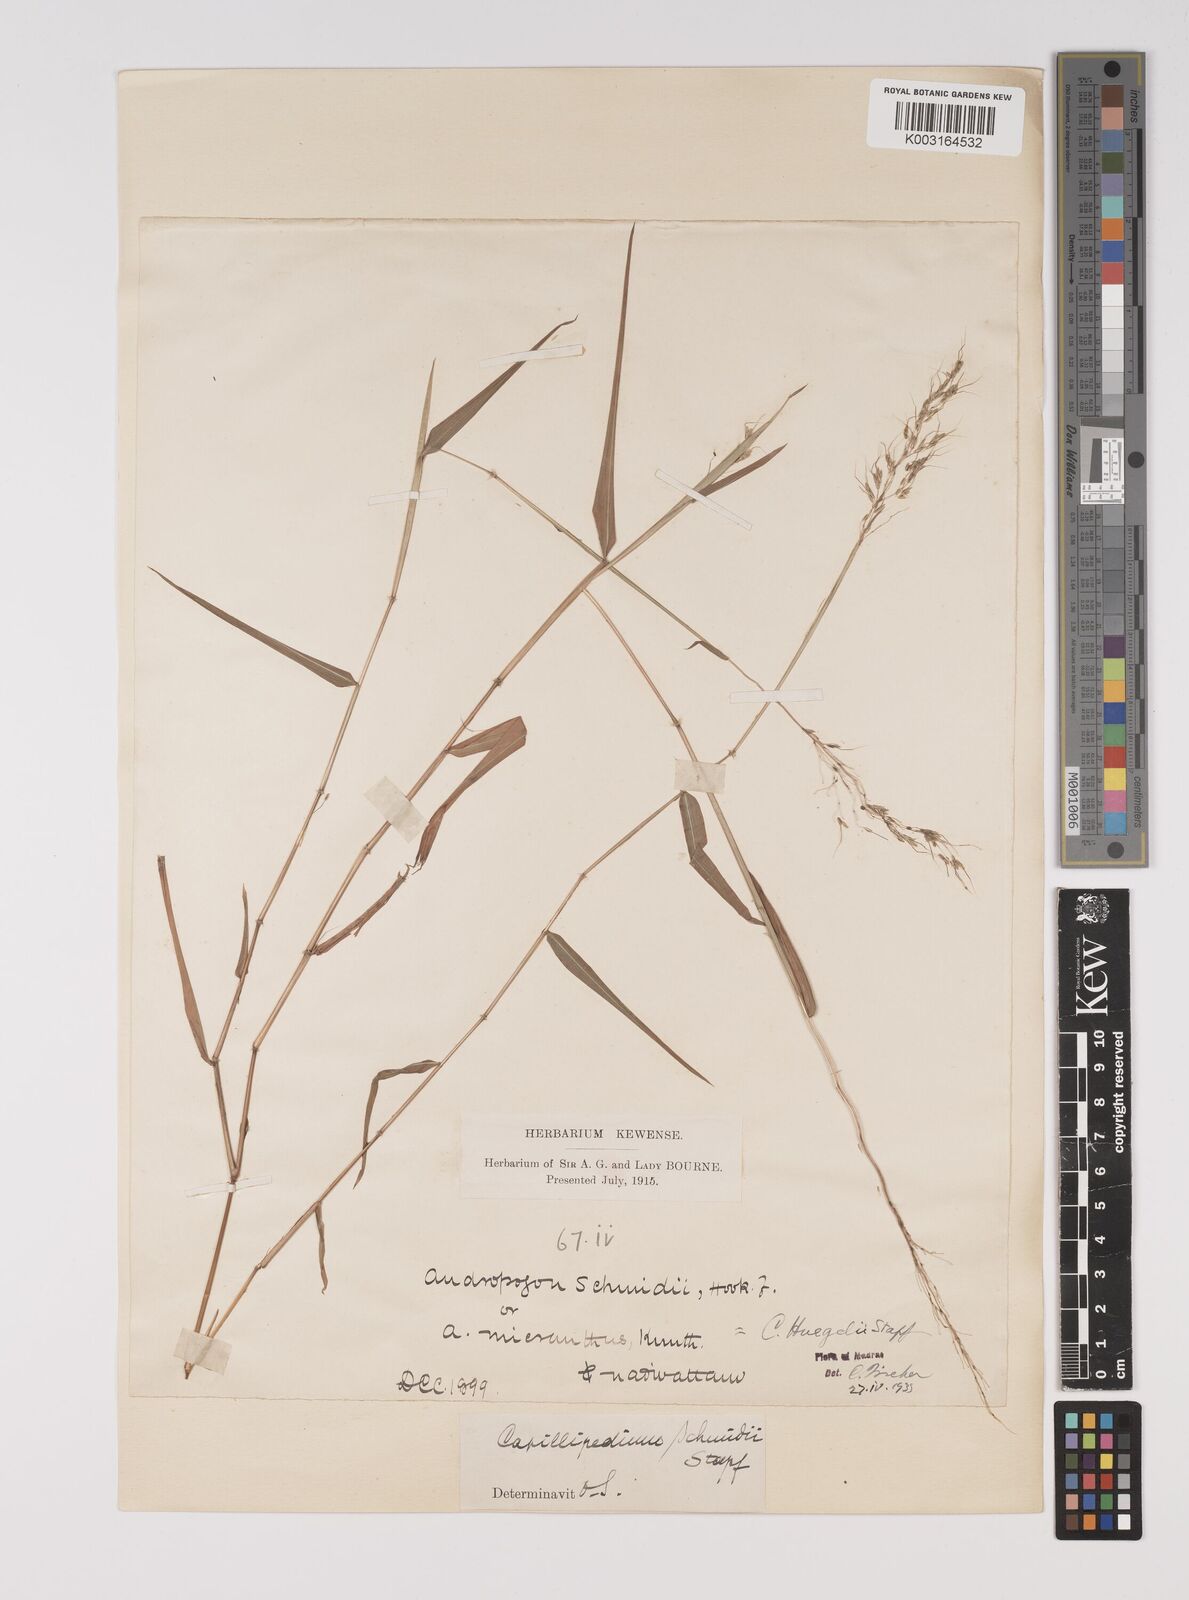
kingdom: Plantae
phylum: Tracheophyta
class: Liliopsida
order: Poales
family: Poaceae
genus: Capillipedium
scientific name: Capillipedium huegelii
